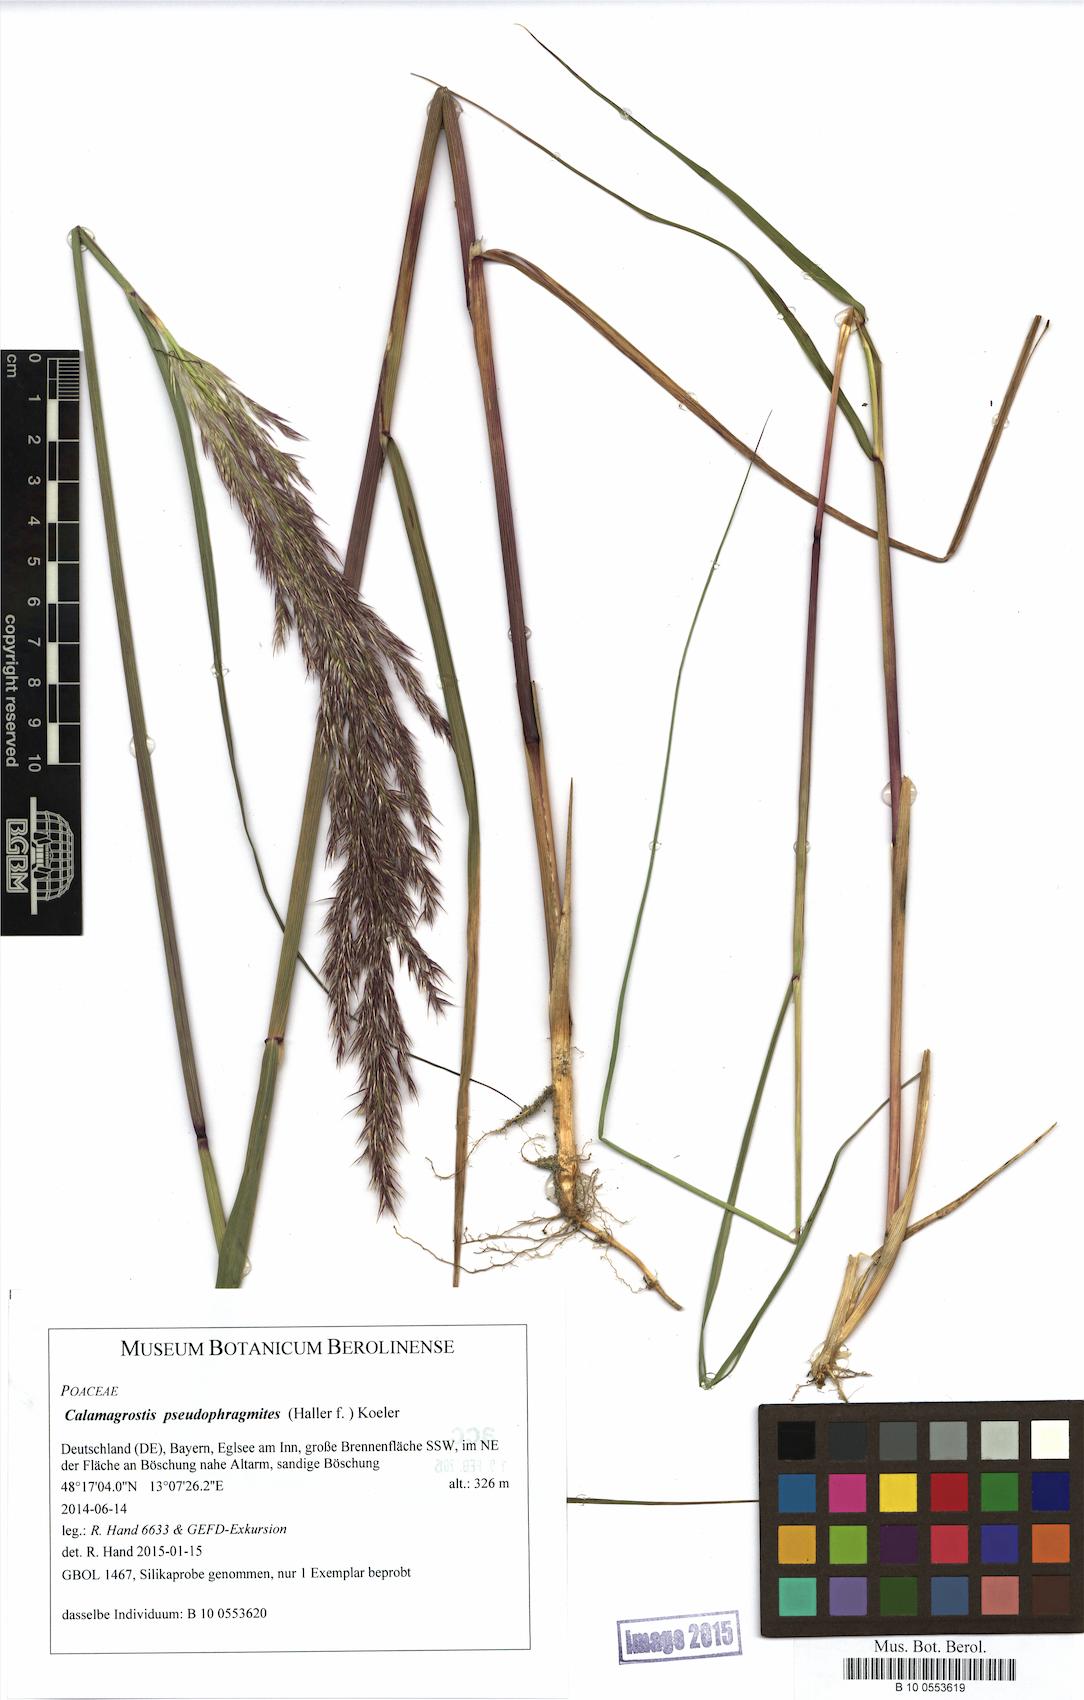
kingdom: Plantae
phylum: Tracheophyta
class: Liliopsida
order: Poales
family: Poaceae
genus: Calamagrostis
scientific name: Calamagrostis pseudophragmites
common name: Coastal small-reed
